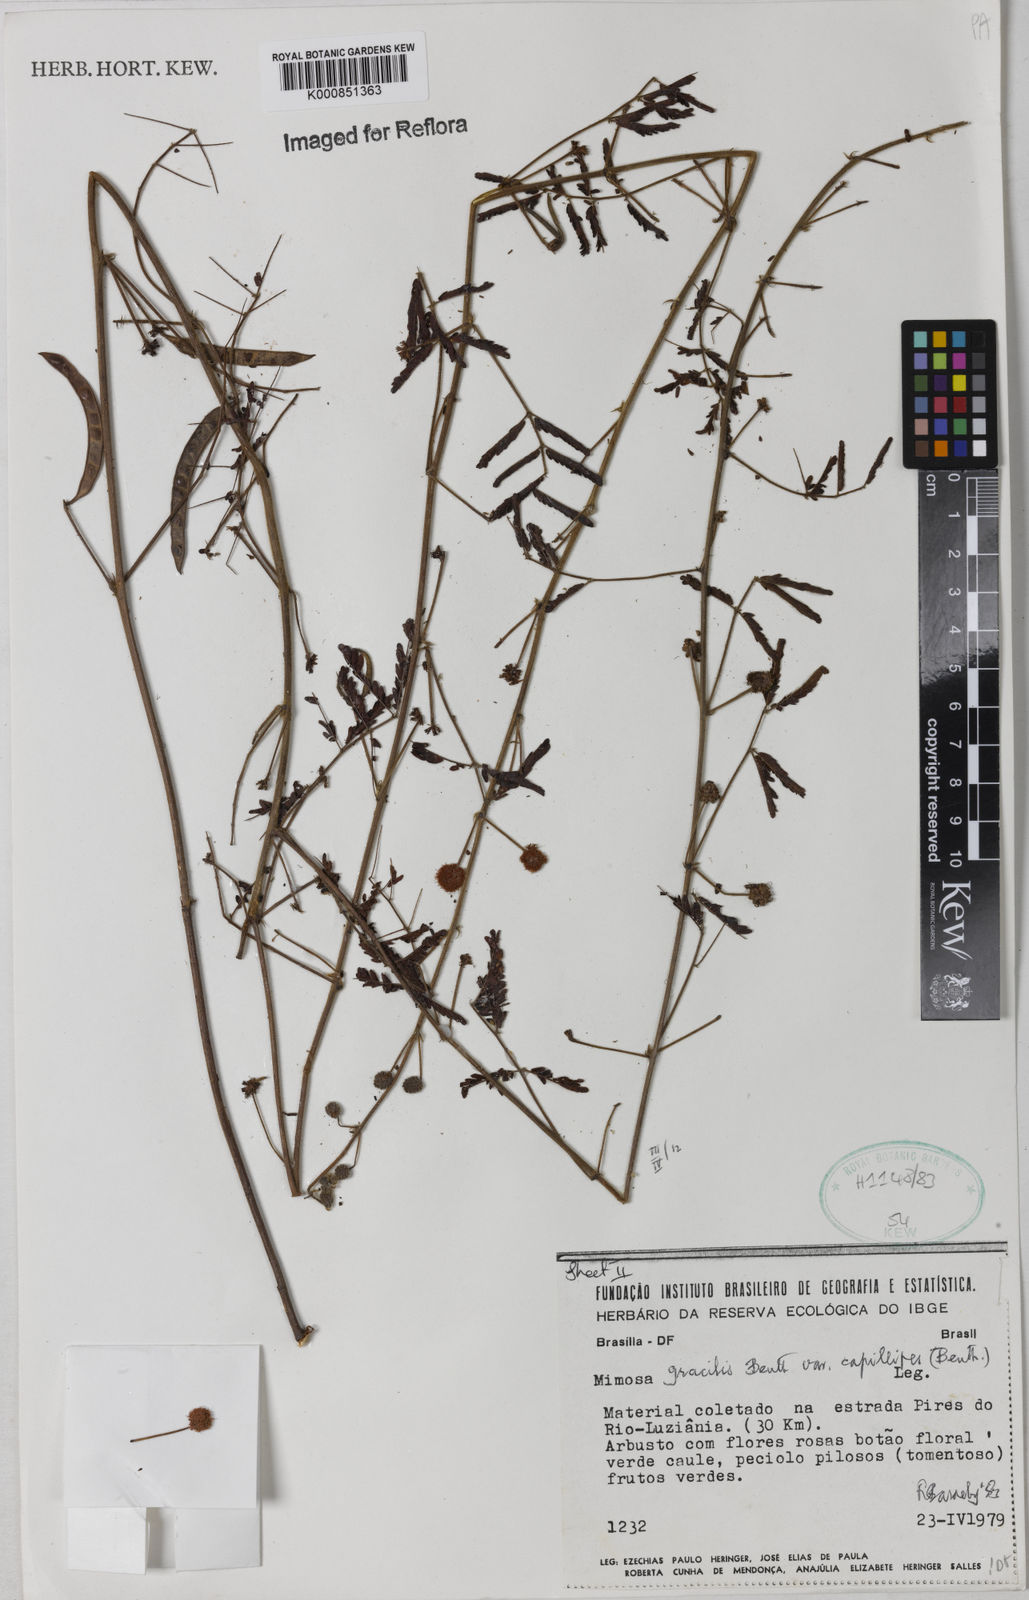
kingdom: Plantae
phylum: Tracheophyta
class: Magnoliopsida
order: Fabales
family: Fabaceae
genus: Mimosa
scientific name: Mimosa gracilis
